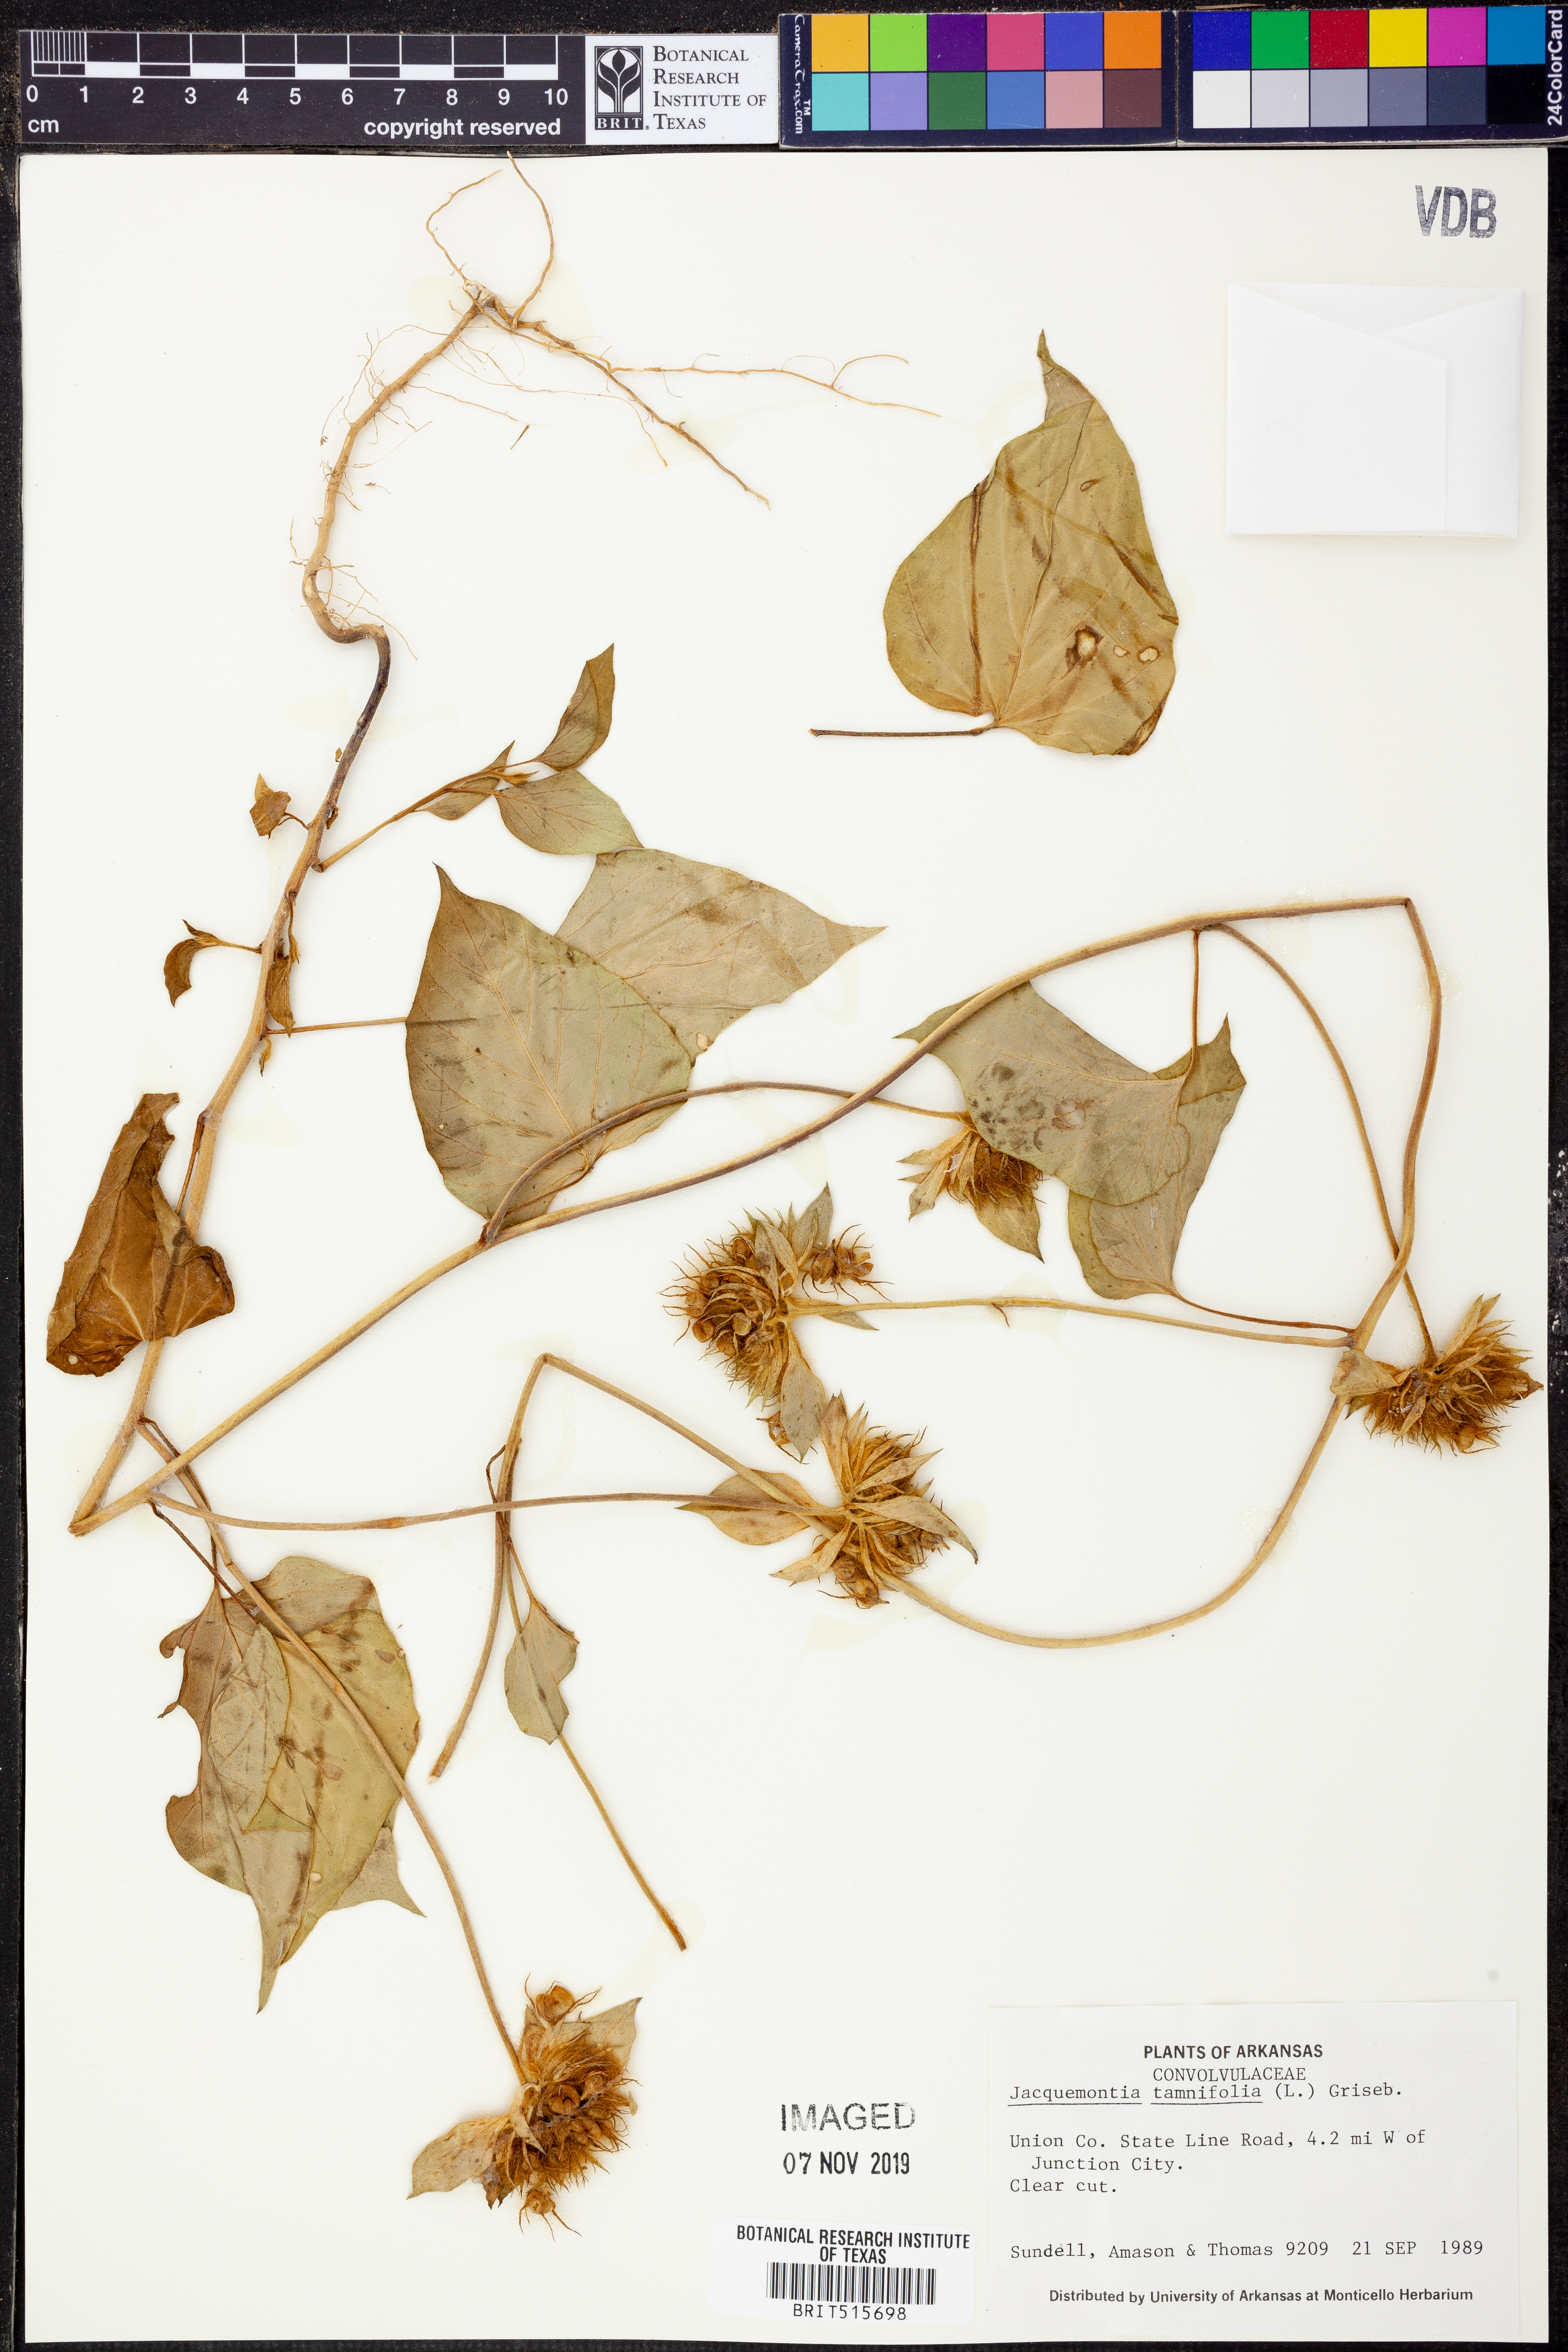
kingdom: Plantae
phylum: Tracheophyta
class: Magnoliopsida
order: Solanales
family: Convolvulaceae
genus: Jacquemontia
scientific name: Jacquemontia tamnifolia
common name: Hairy clustervine
